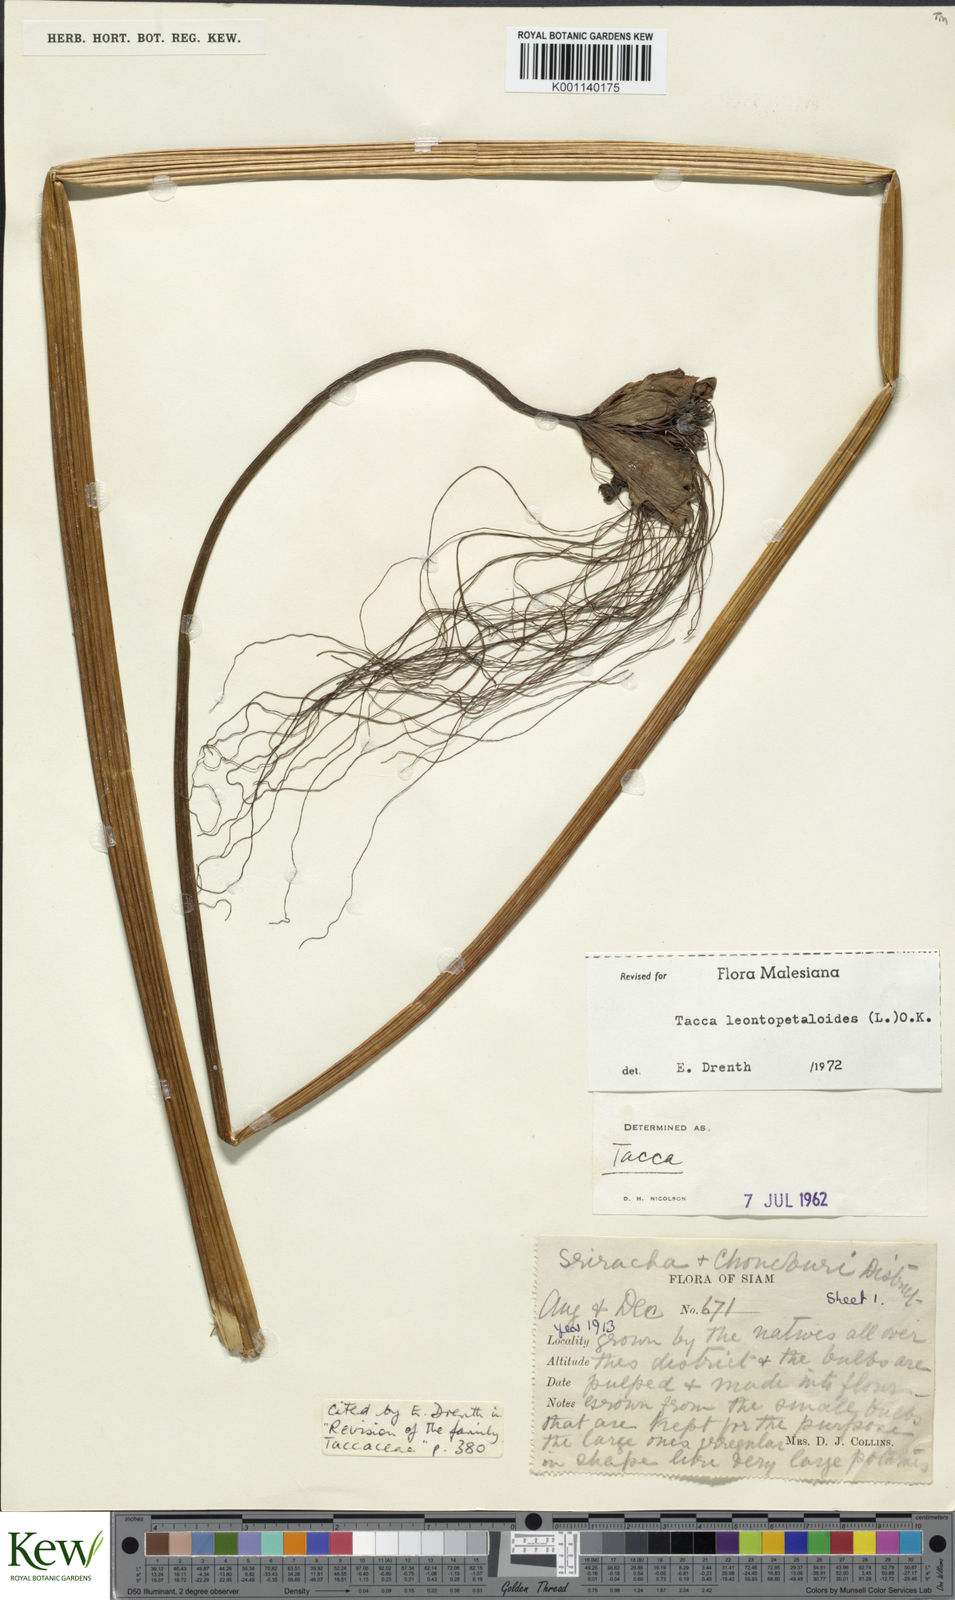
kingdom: Plantae
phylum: Tracheophyta
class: Liliopsida
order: Dioscoreales
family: Dioscoreaceae
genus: Tacca
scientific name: Tacca leontopetaloides
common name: Arrowroot
